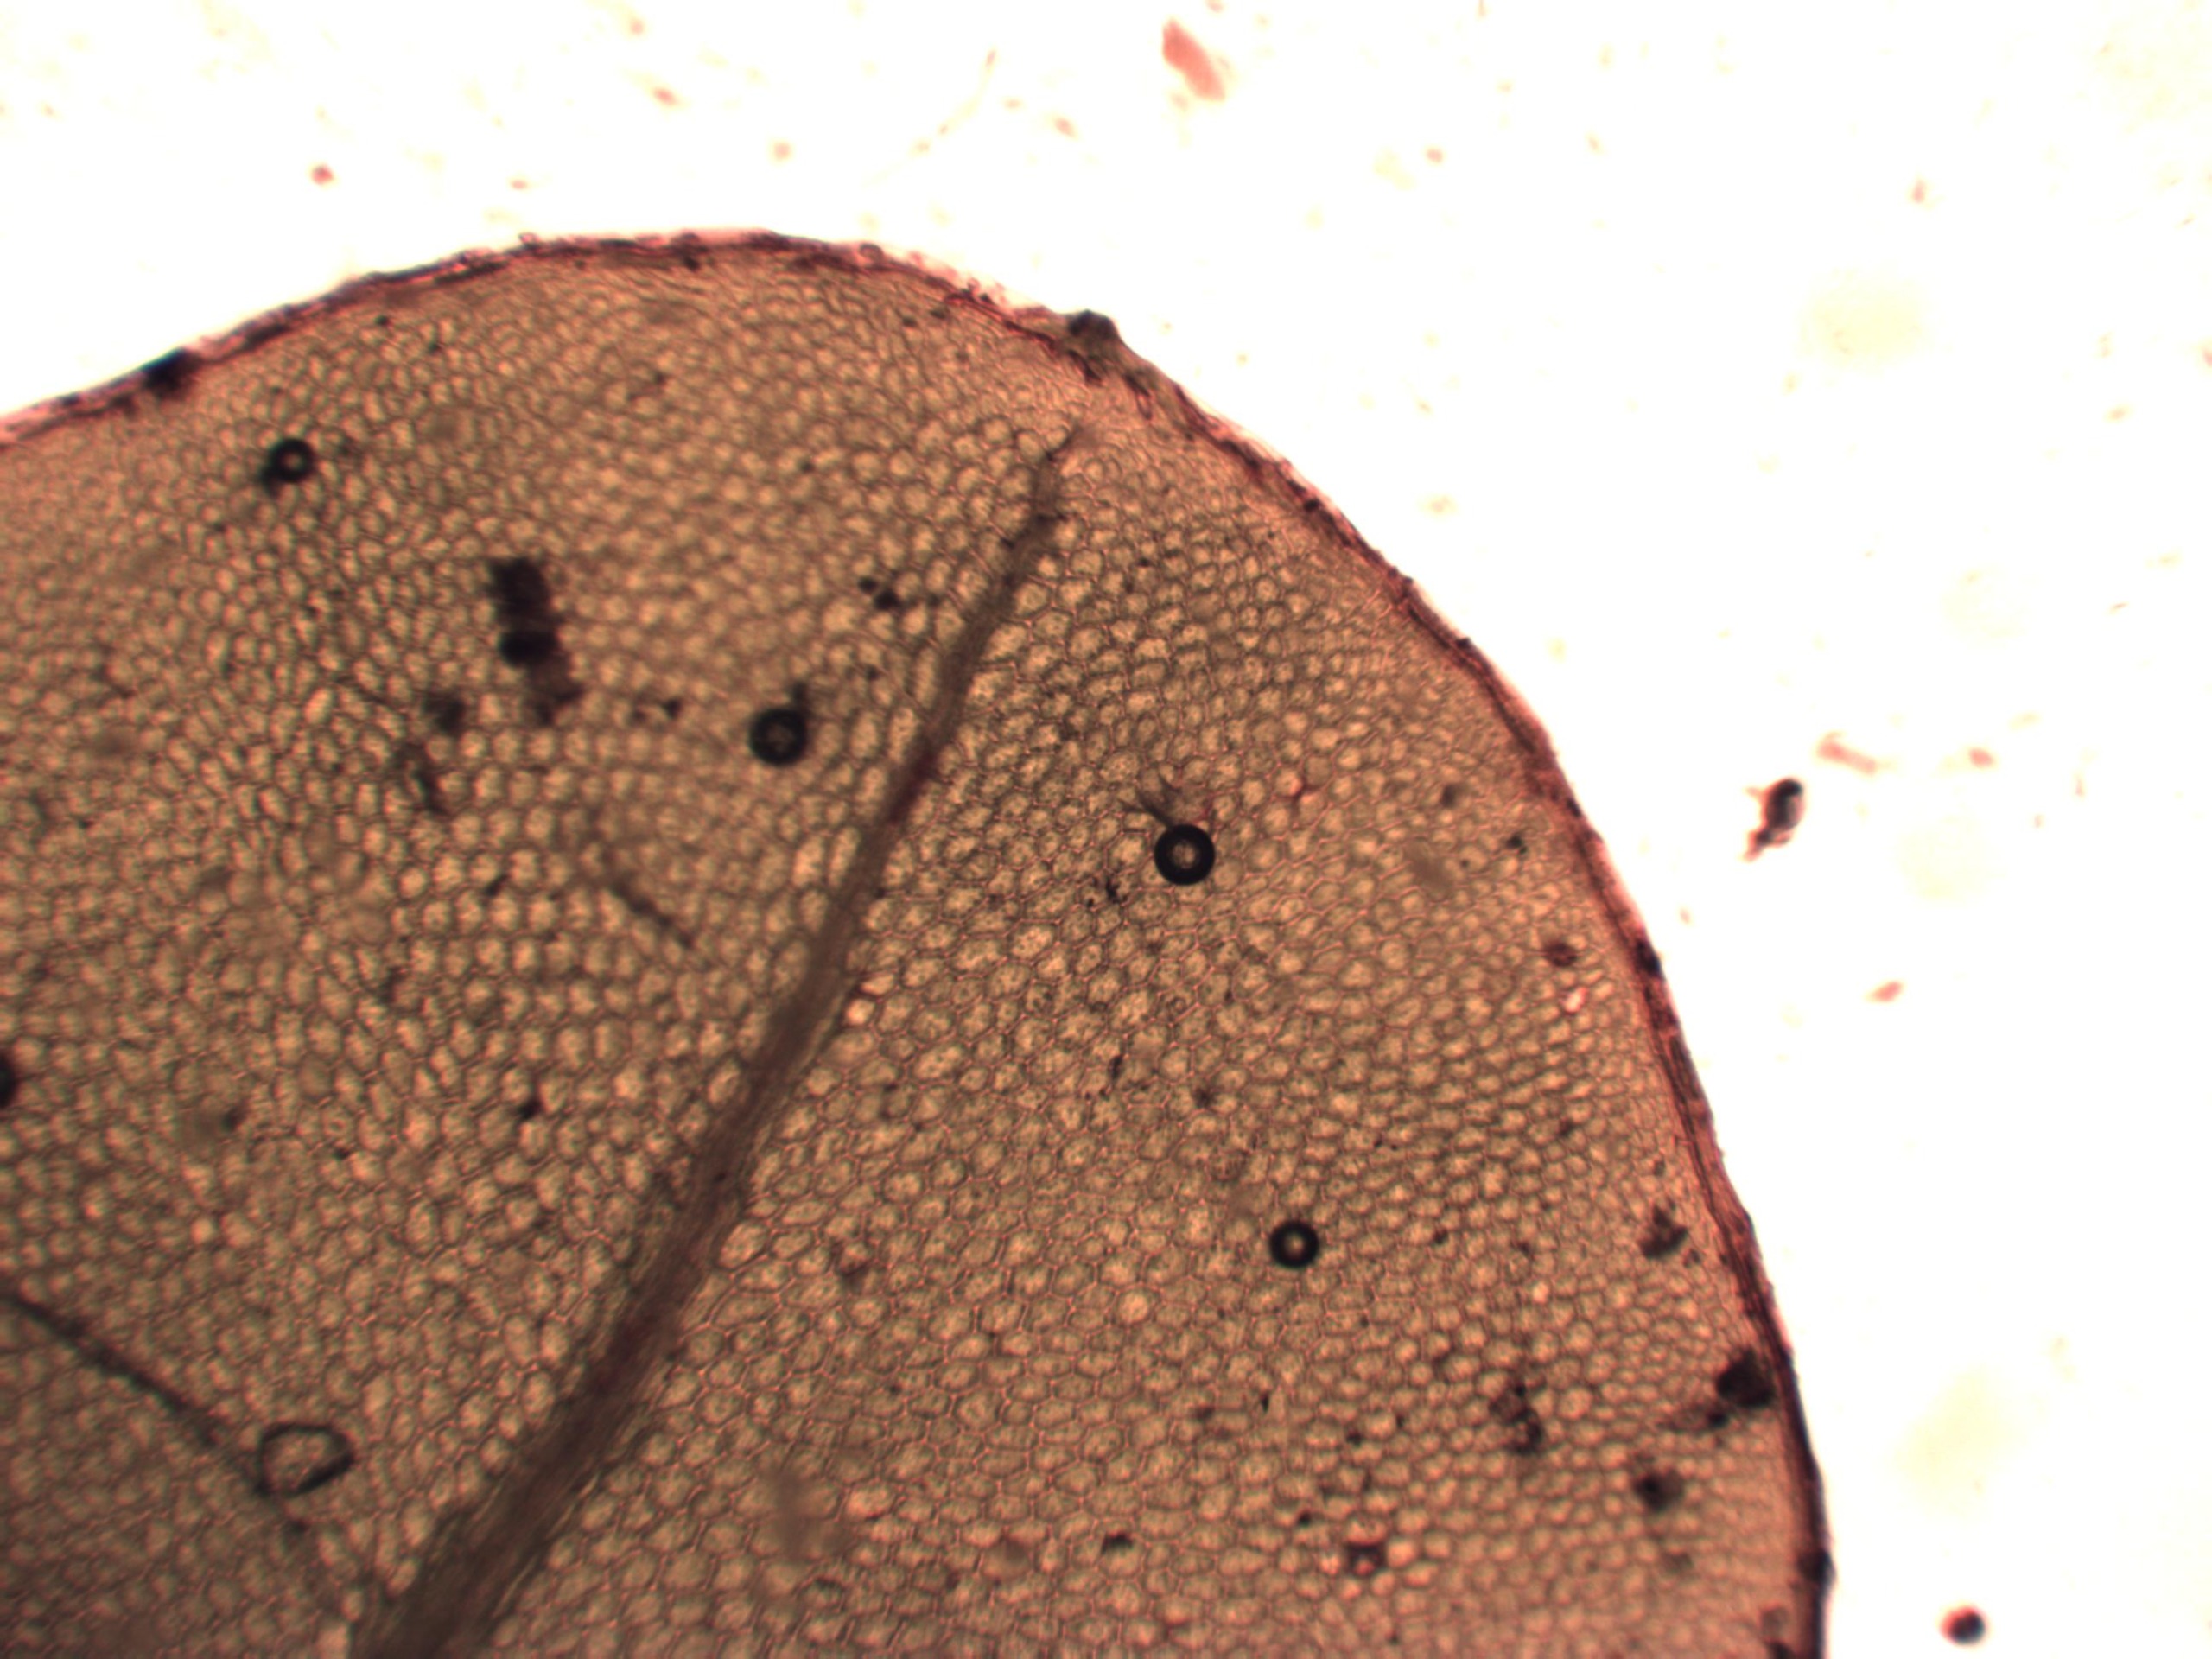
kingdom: Plantae
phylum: Bryophyta
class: Bryopsida
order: Bryales
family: Mniaceae
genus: Rhizomnium
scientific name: Rhizomnium punctatum
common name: Almindelig bredblad
